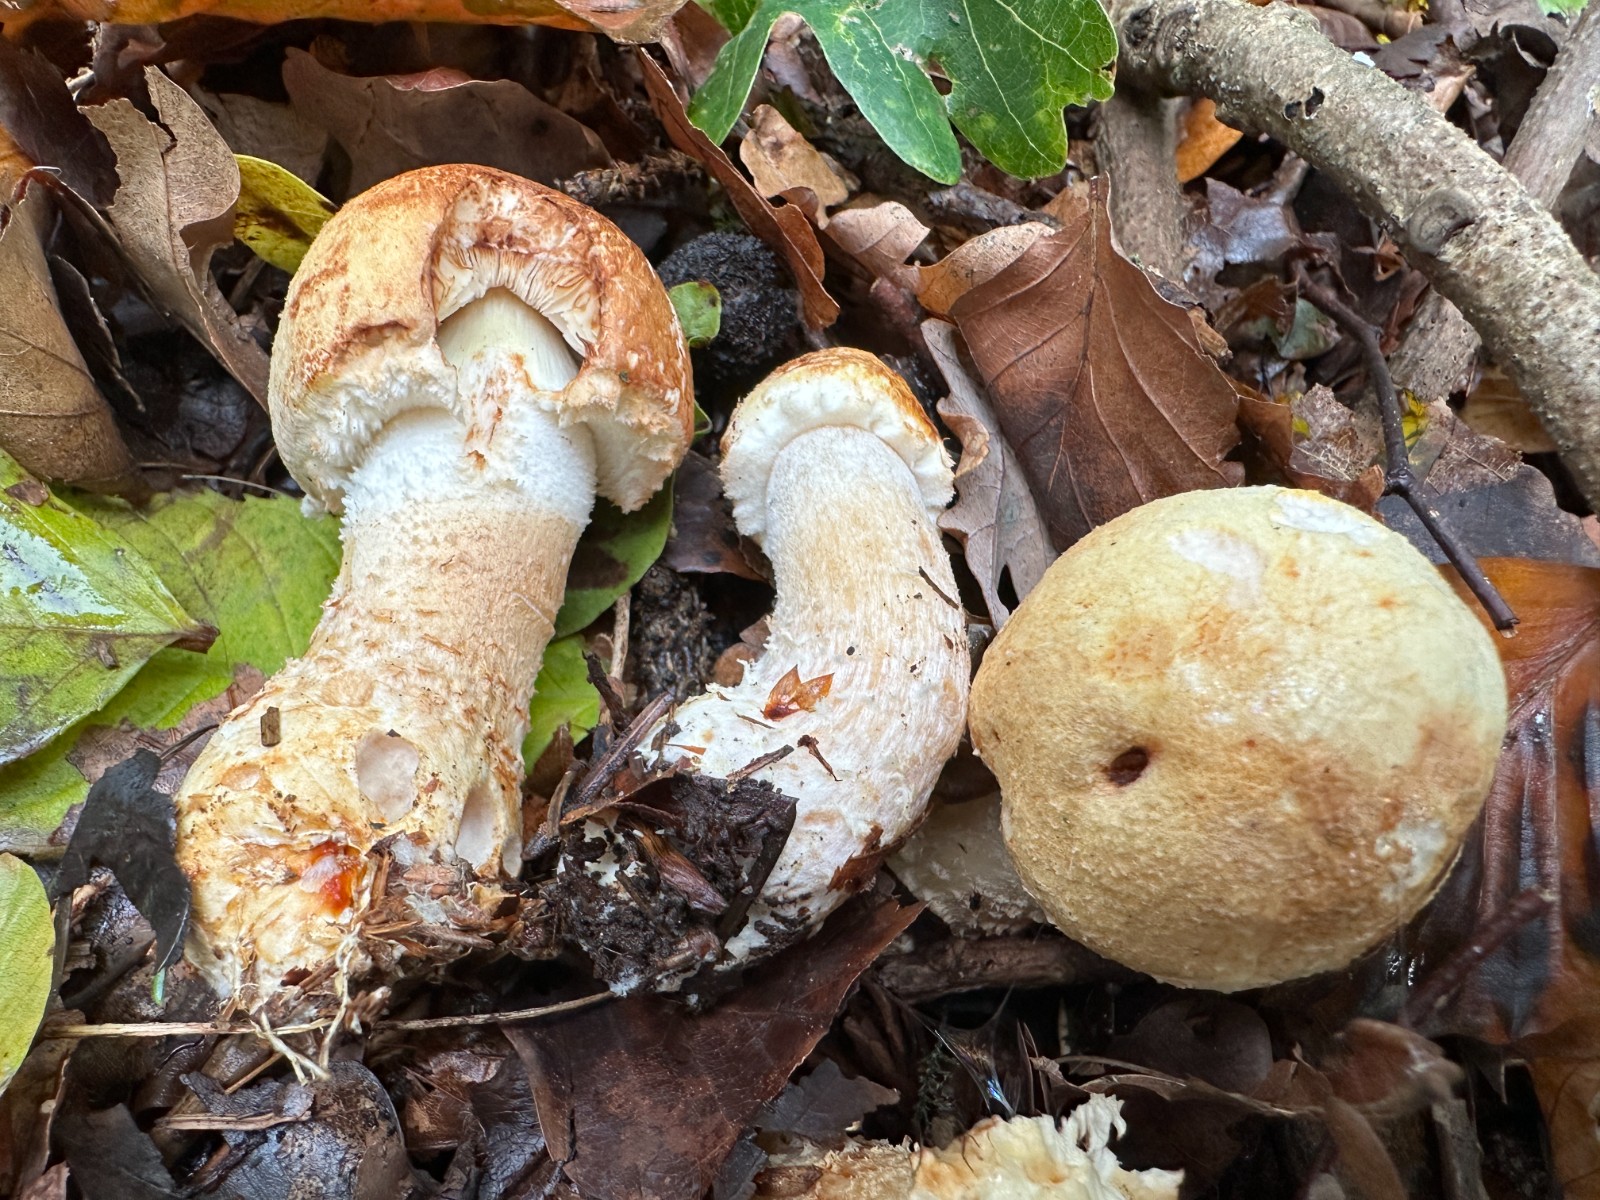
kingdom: Fungi
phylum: Basidiomycota
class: Agaricomycetes
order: Agaricales
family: Agaricaceae
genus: Agaricus
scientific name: Agaricus augustus
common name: prægtig champignon
